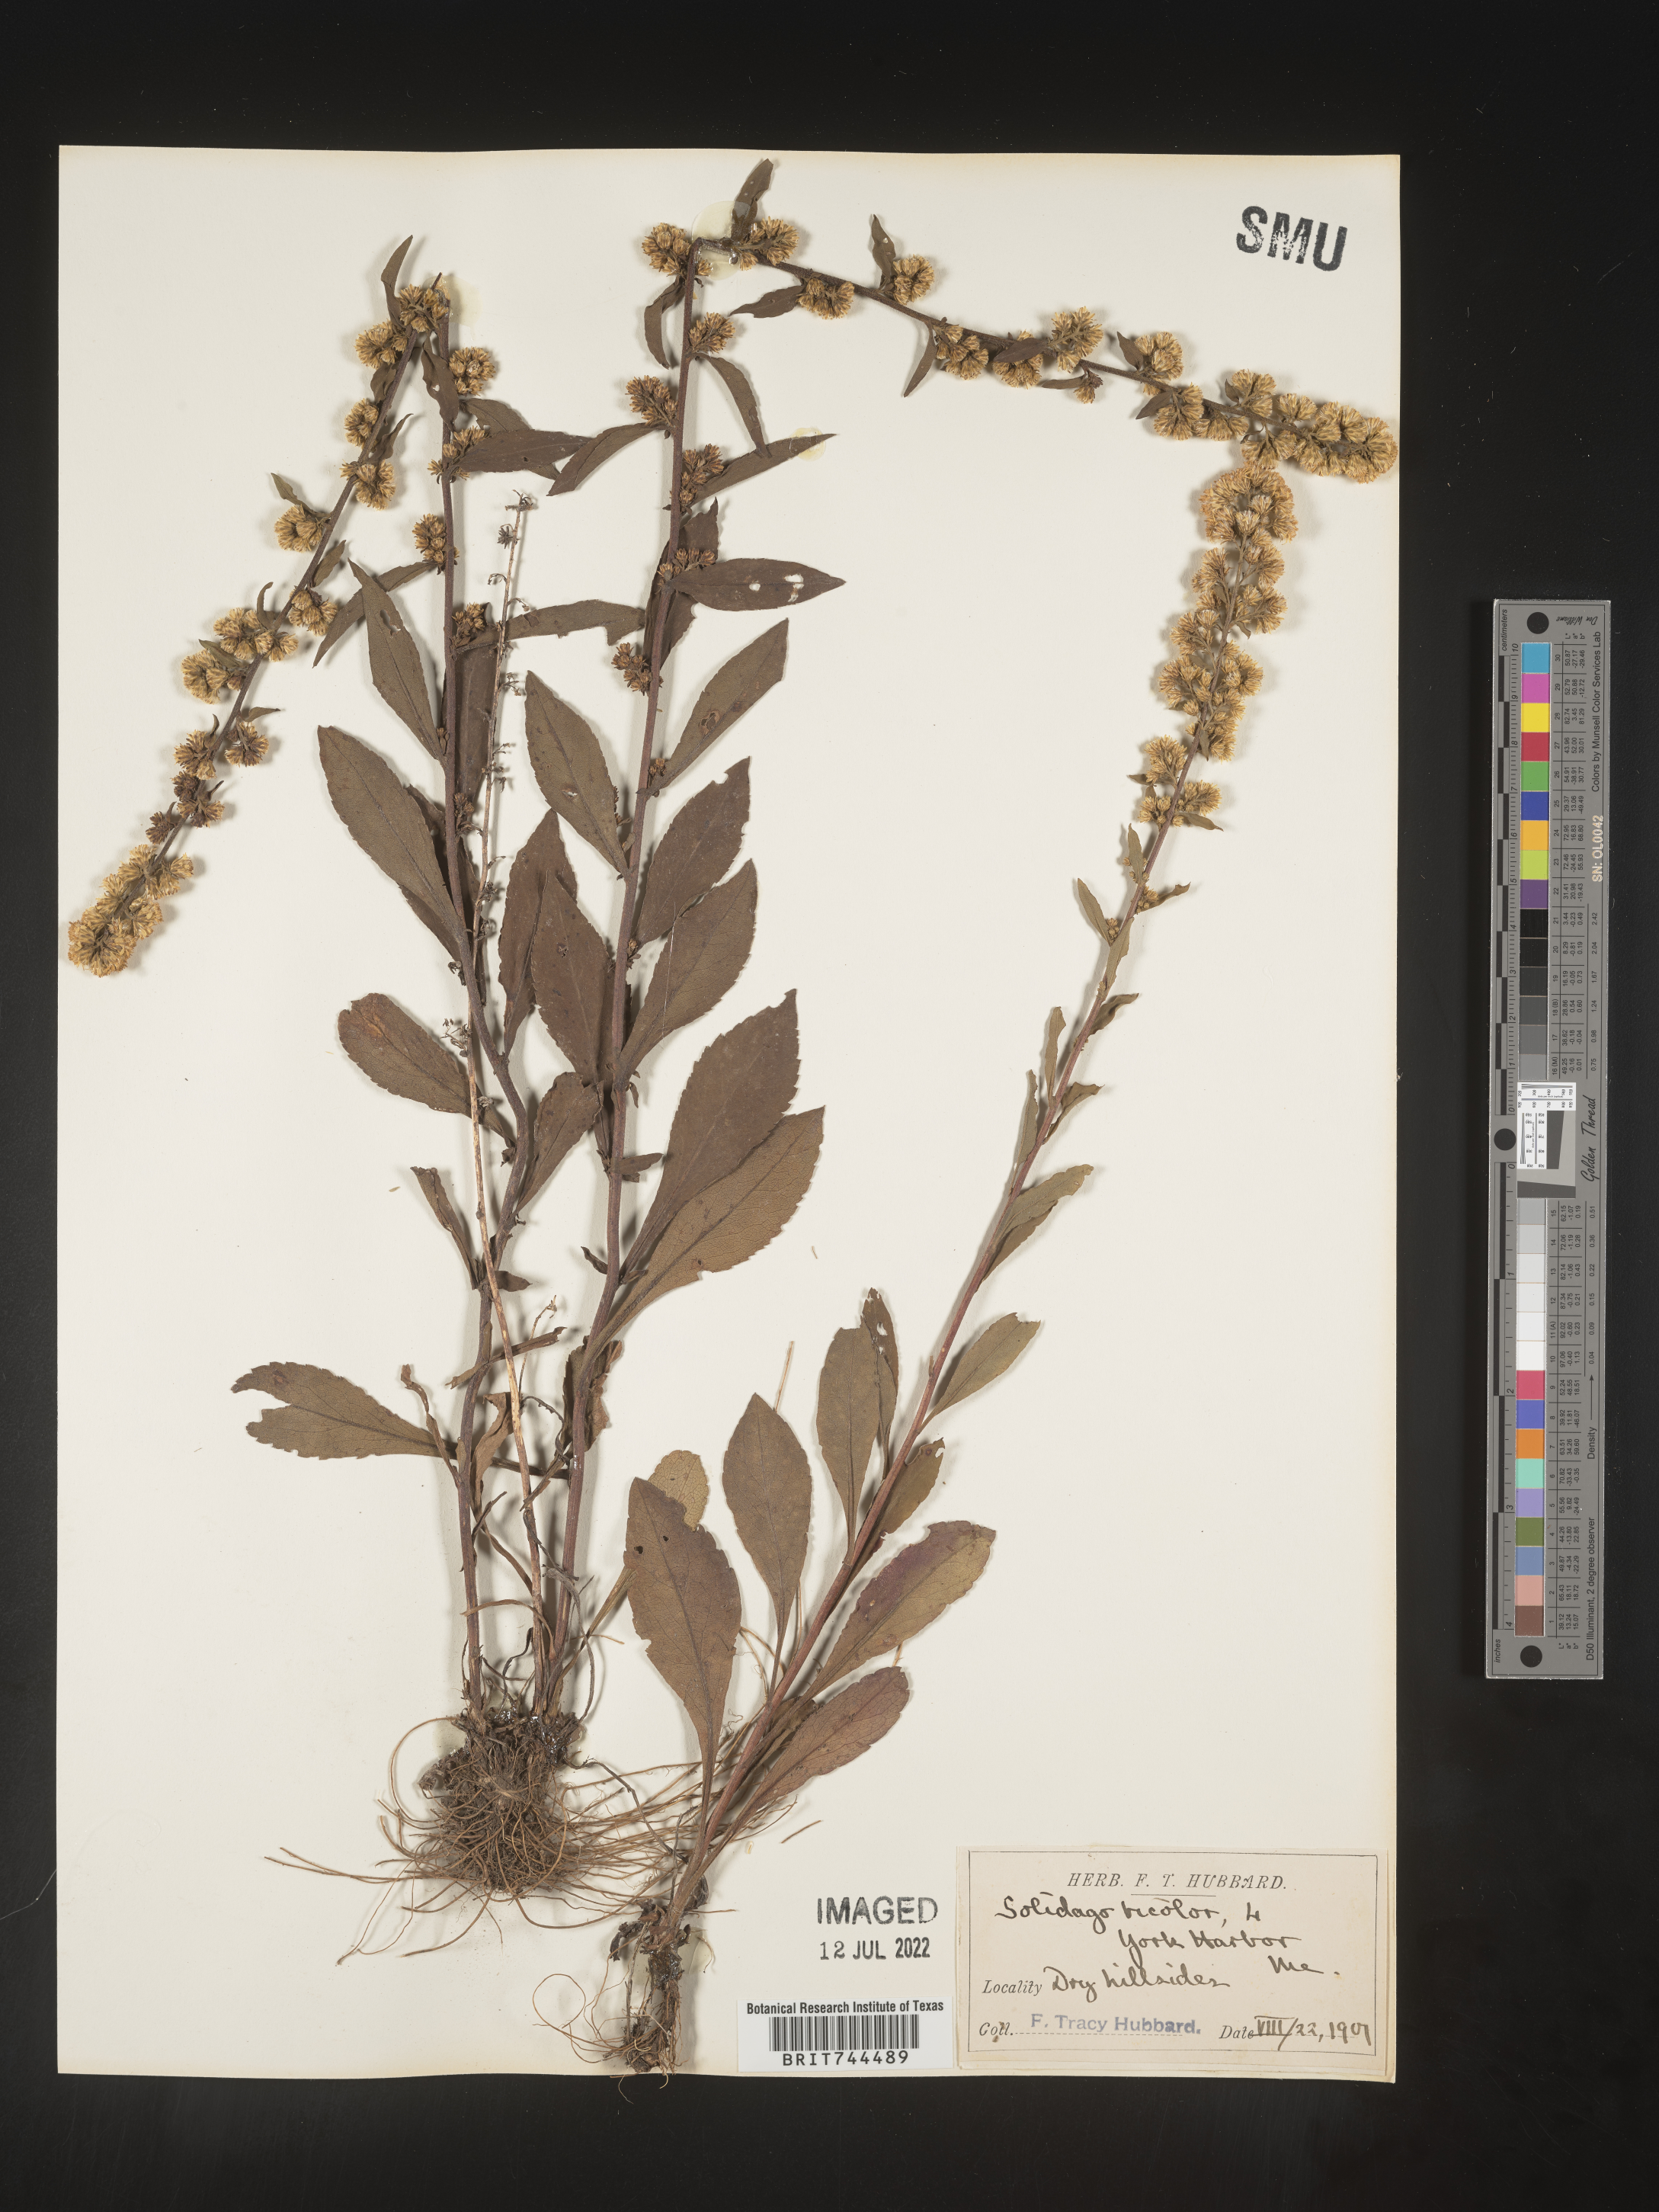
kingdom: Plantae
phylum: Tracheophyta
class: Magnoliopsida
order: Asterales
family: Asteraceae
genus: Solidago
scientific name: Solidago bicolor
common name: Silverrod
